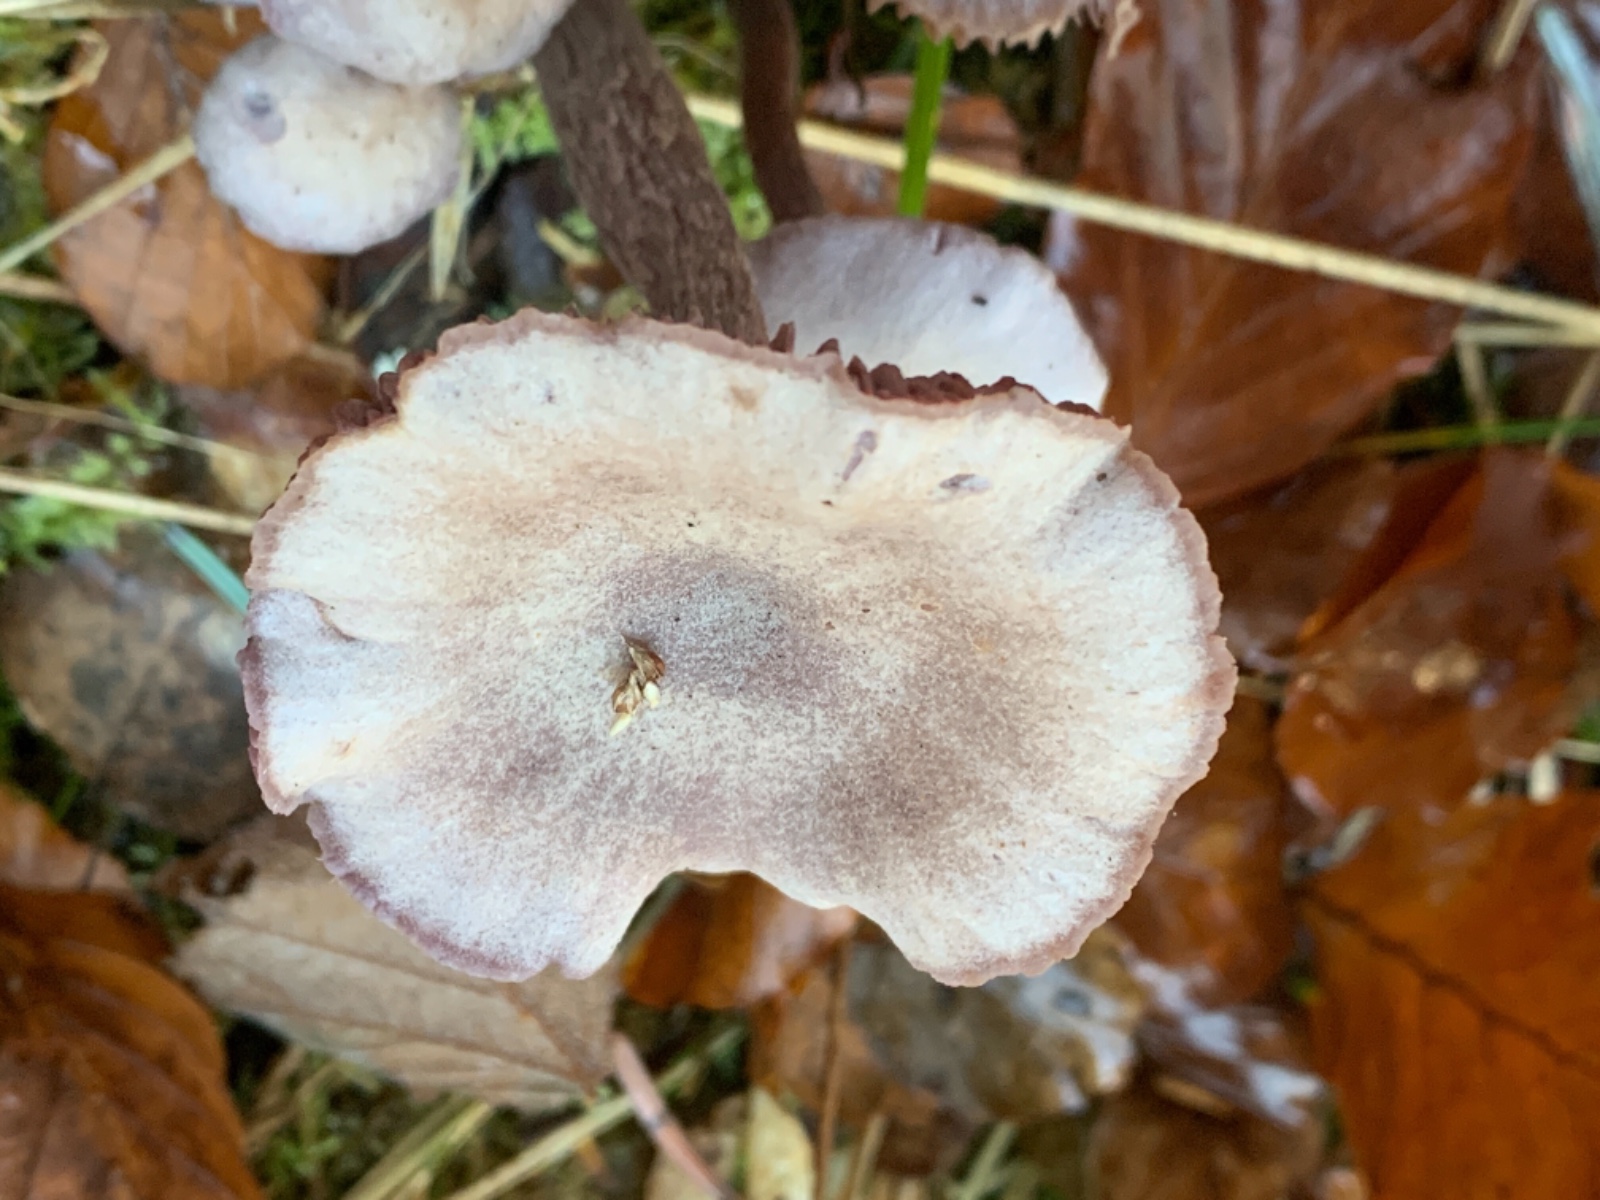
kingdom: Fungi
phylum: Basidiomycota
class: Agaricomycetes
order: Agaricales
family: Hydnangiaceae
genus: Laccaria
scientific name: Laccaria proxima
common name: stor ametysthat
